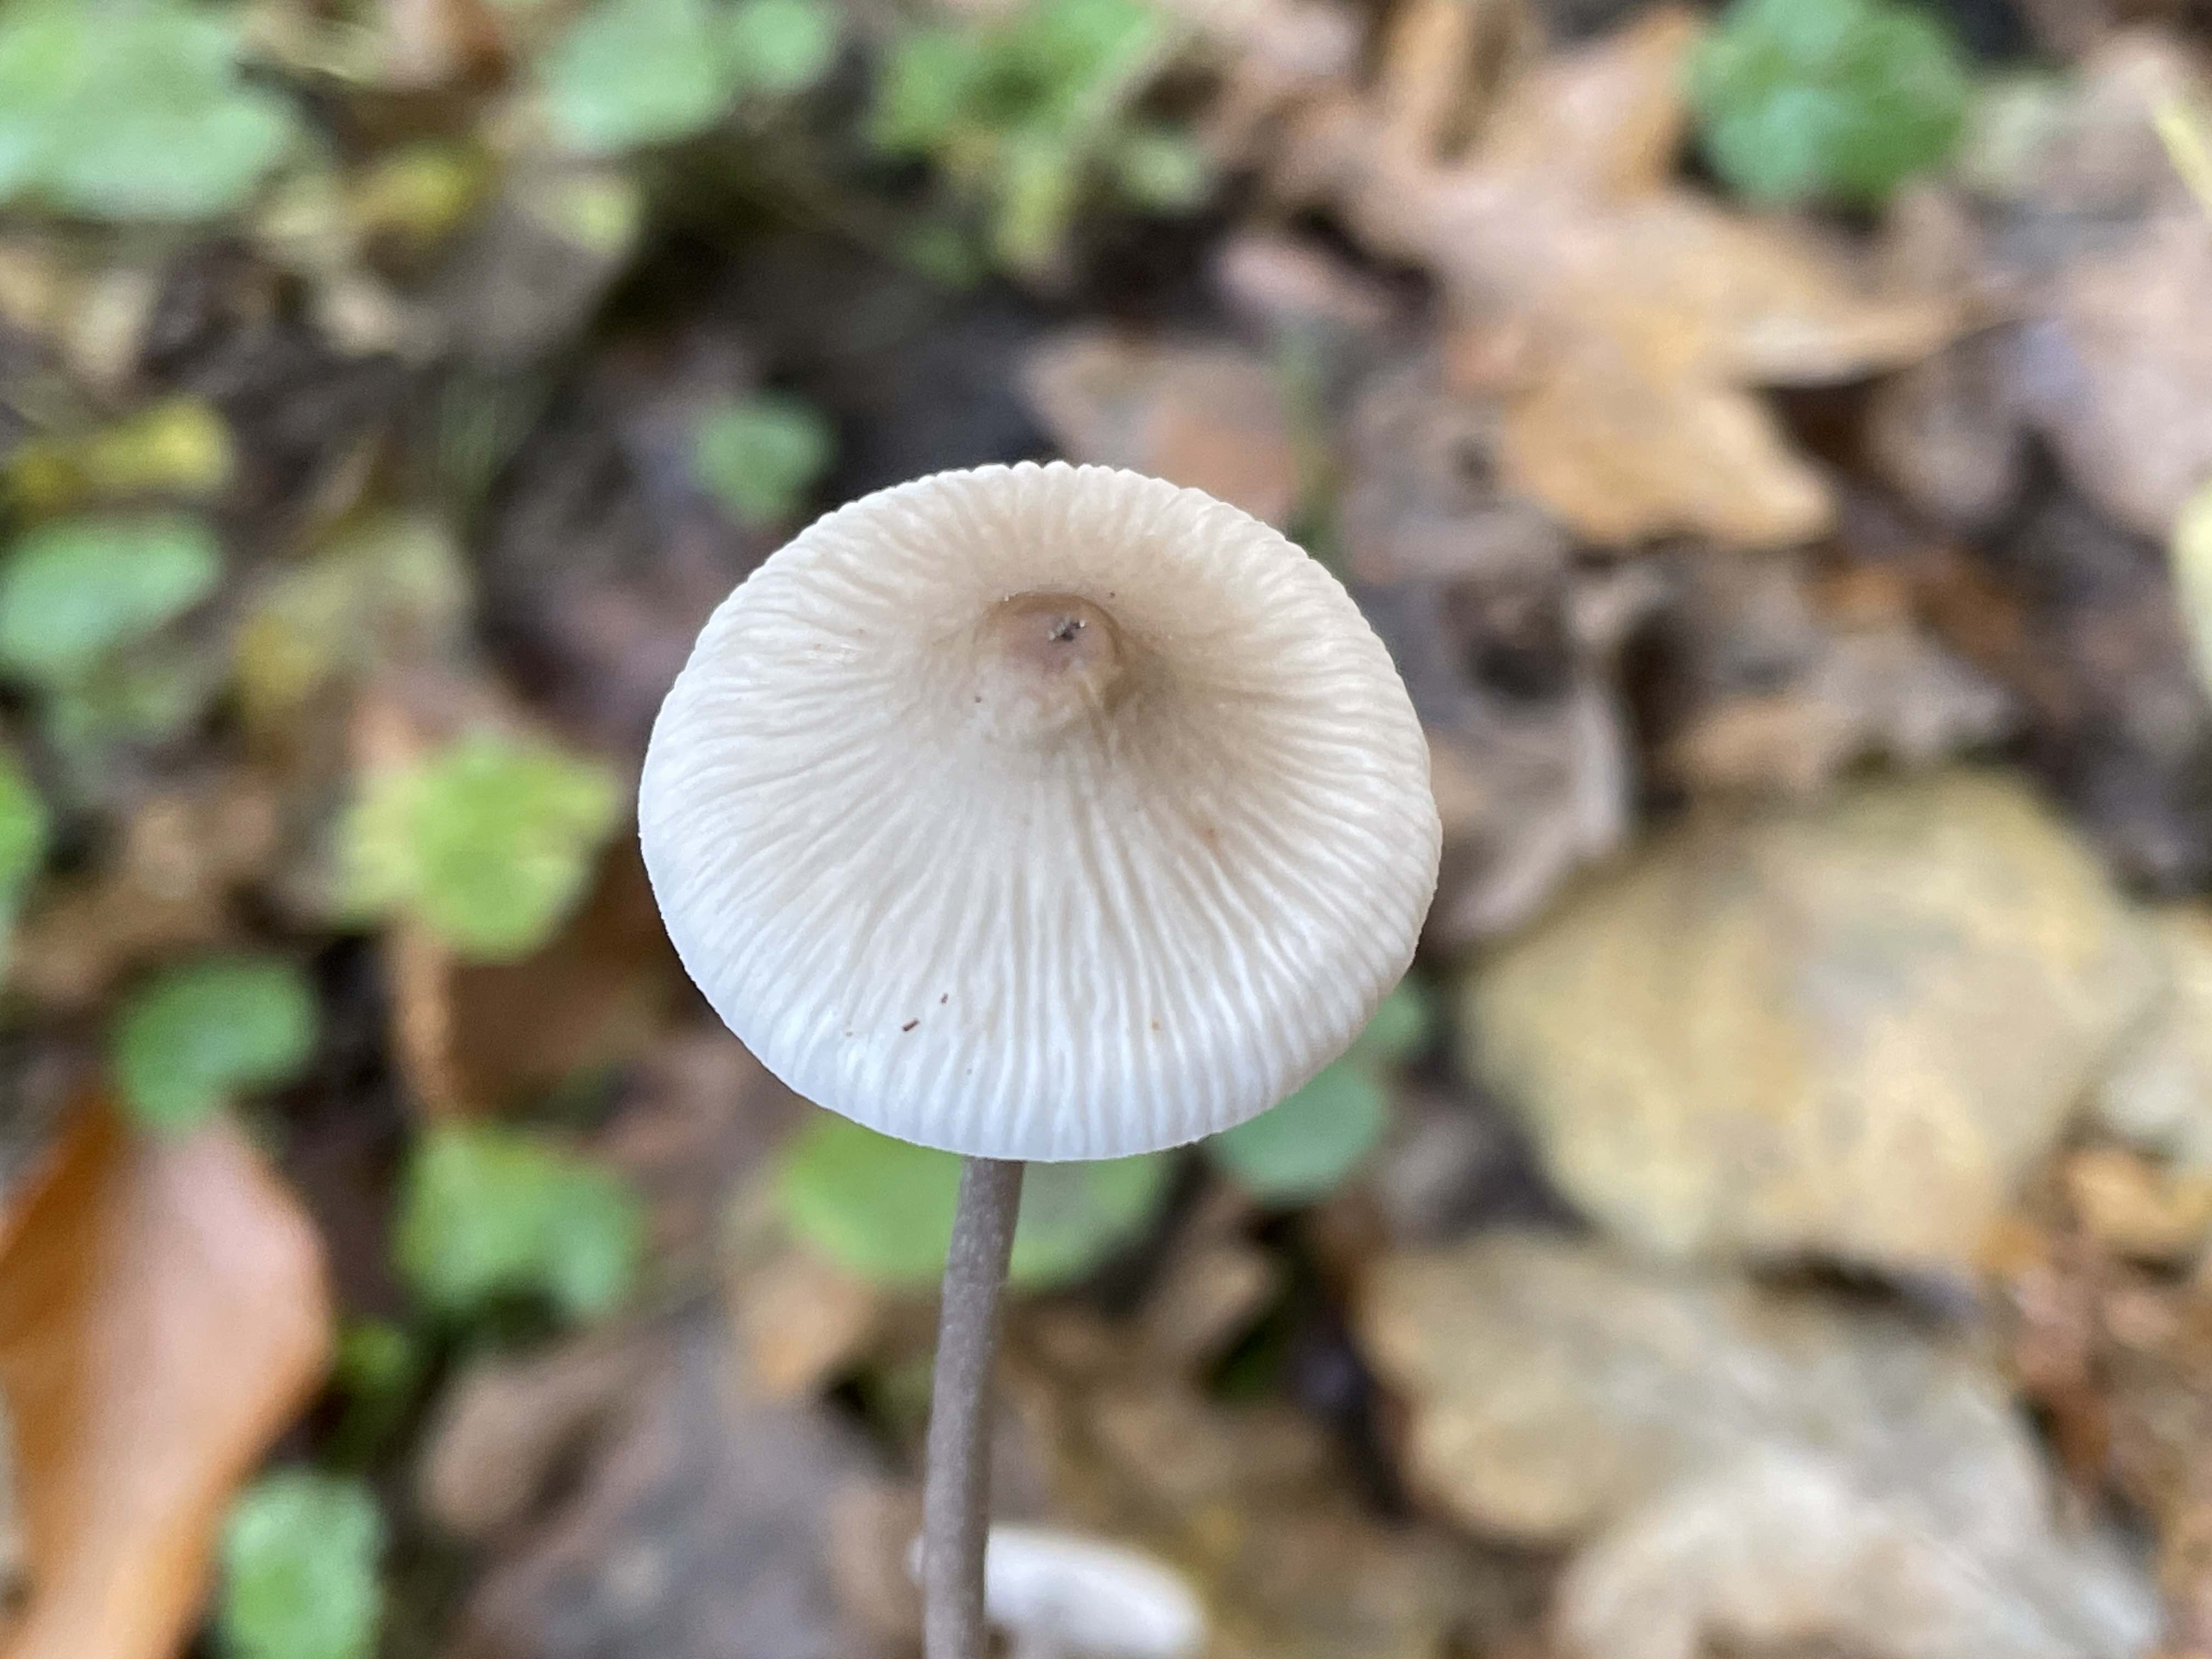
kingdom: Fungi
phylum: Basidiomycota
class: Agaricomycetes
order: Agaricales
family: Mycenaceae
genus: Mycena
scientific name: Mycena polygramma
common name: mangestribet huesvamp
